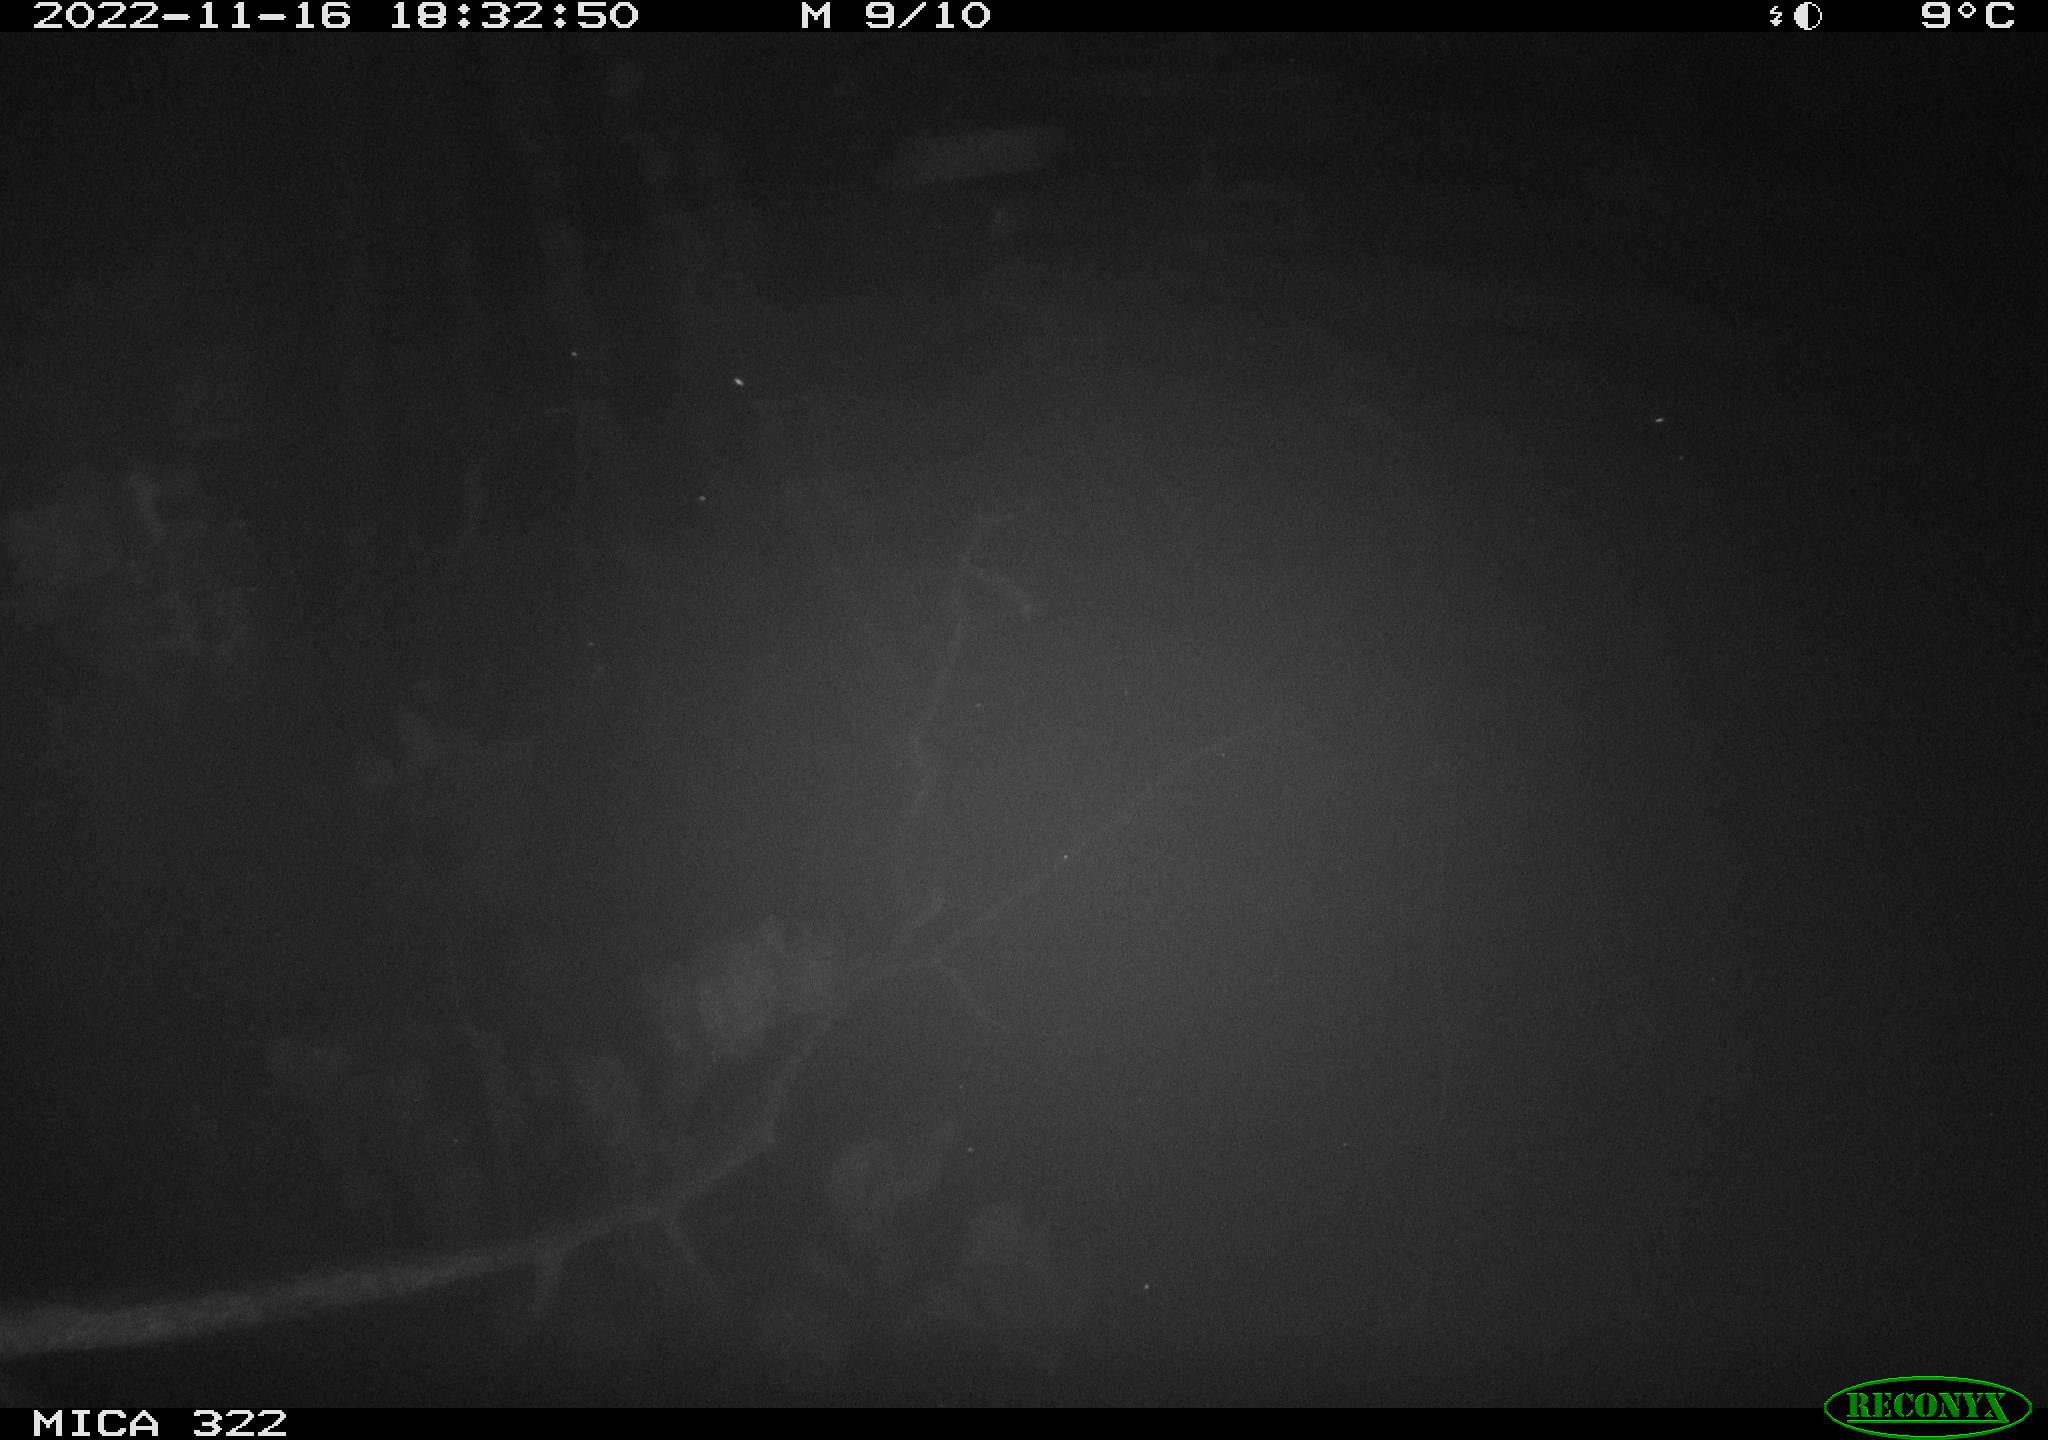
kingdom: Animalia
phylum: Chordata
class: Mammalia
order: Rodentia
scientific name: Rodentia
